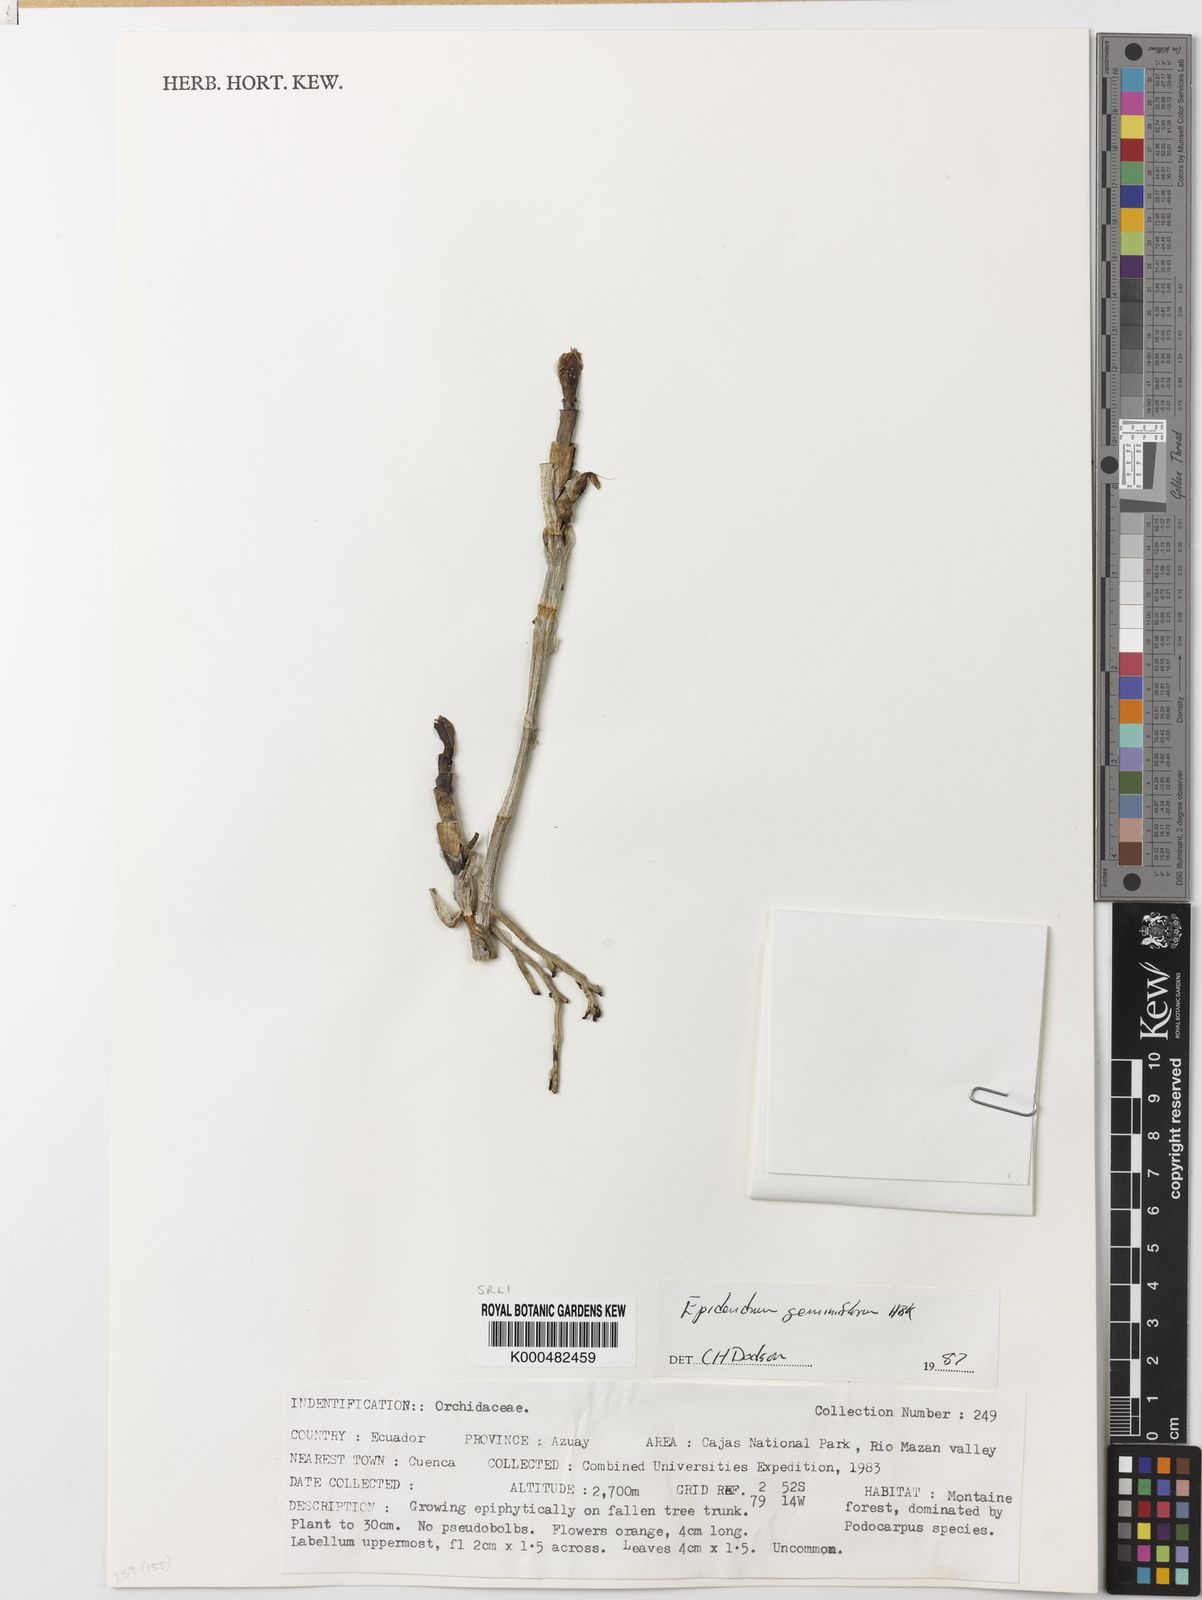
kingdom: Plantae
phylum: Tracheophyta
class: Liliopsida
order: Asparagales
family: Orchidaceae
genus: Epidendrum
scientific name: Epidendrum geminiflorum
